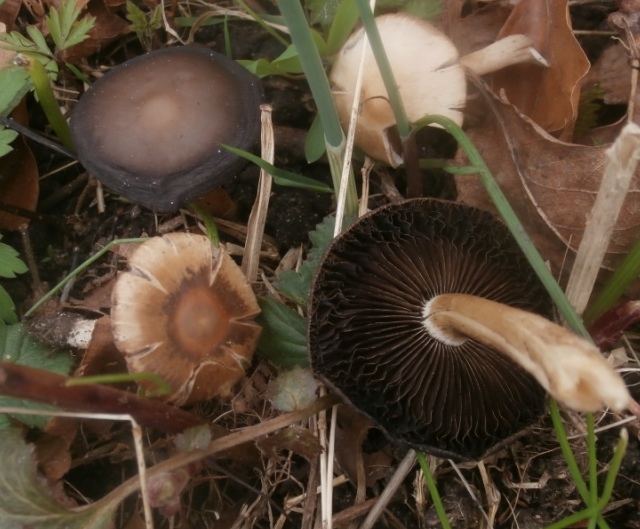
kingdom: Fungi
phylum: Basidiomycota
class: Agaricomycetes
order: Agaricales
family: Psathyrellaceae
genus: Psathyrella
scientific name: Psathyrella spadiceogrisea
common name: gråbrun mørkhat
